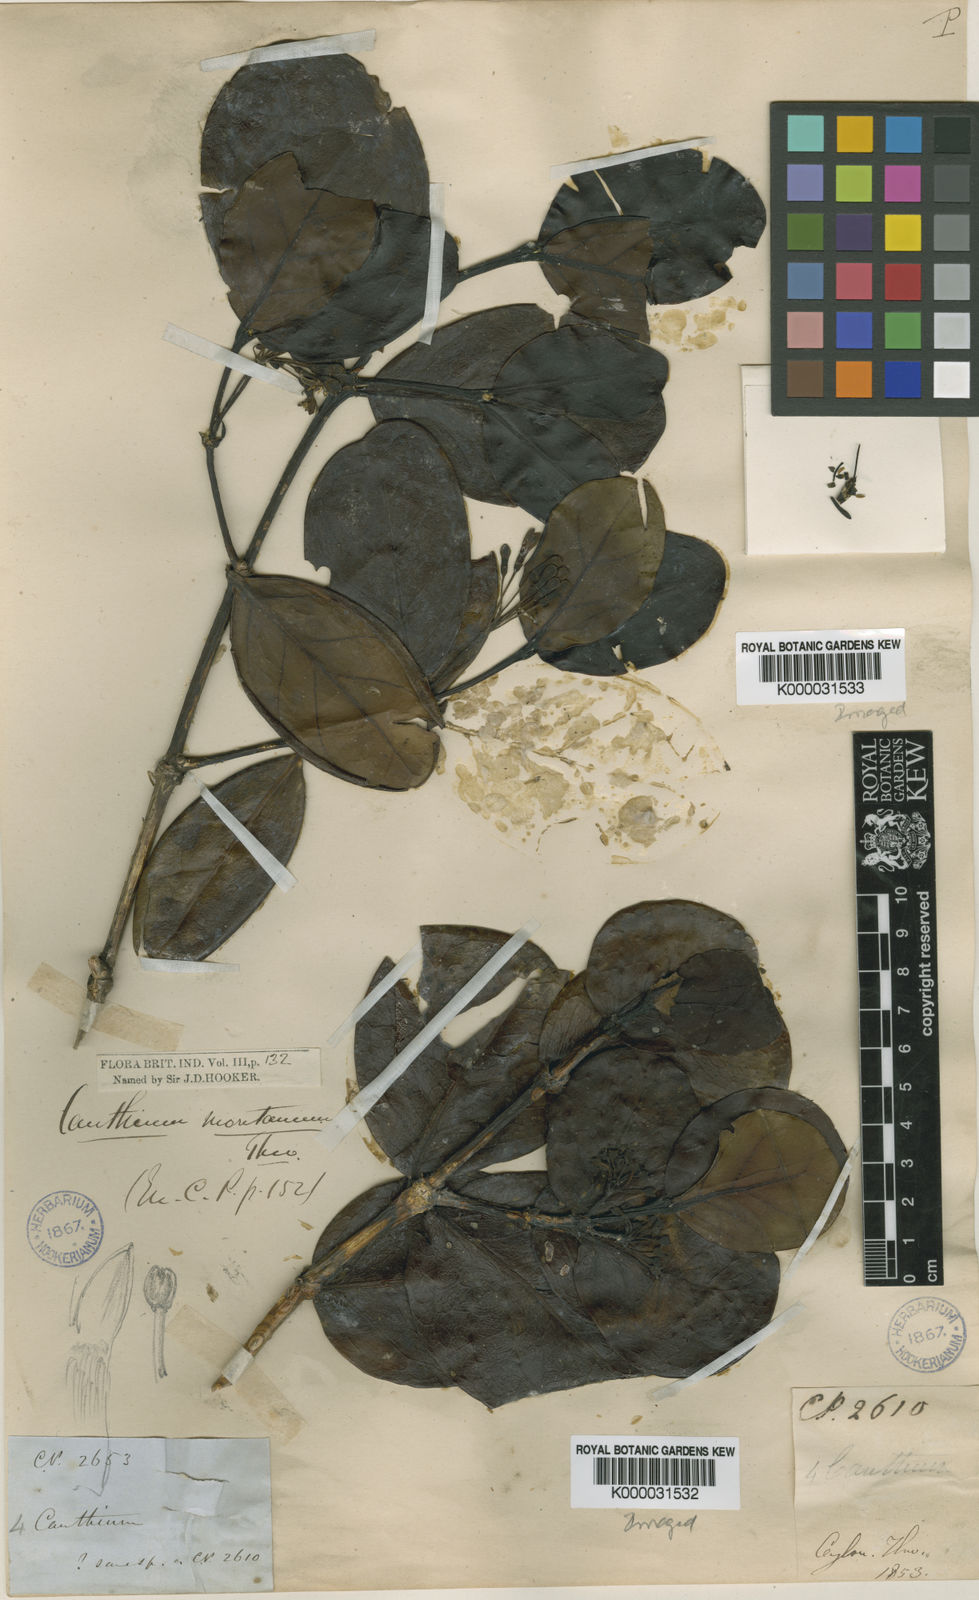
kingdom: Plantae
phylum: Tracheophyta
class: Magnoliopsida
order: Gentianales
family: Rubiaceae
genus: Psydrax
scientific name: Psydrax montanus
